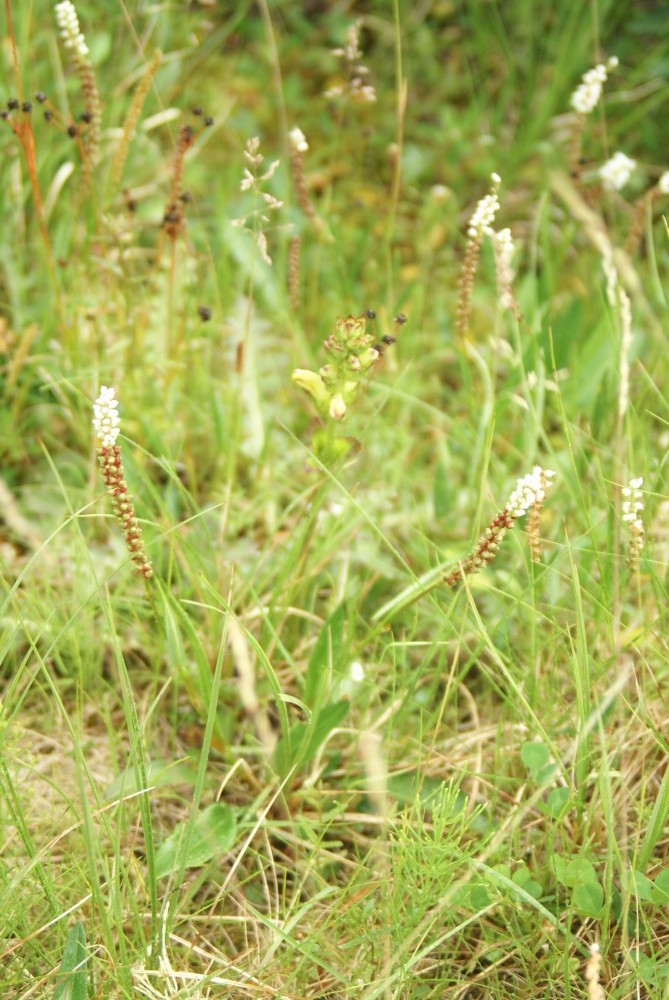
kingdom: Plantae
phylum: Tracheophyta
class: Magnoliopsida
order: Caryophyllales
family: Polygonaceae
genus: Bistorta
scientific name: Bistorta vivipara
